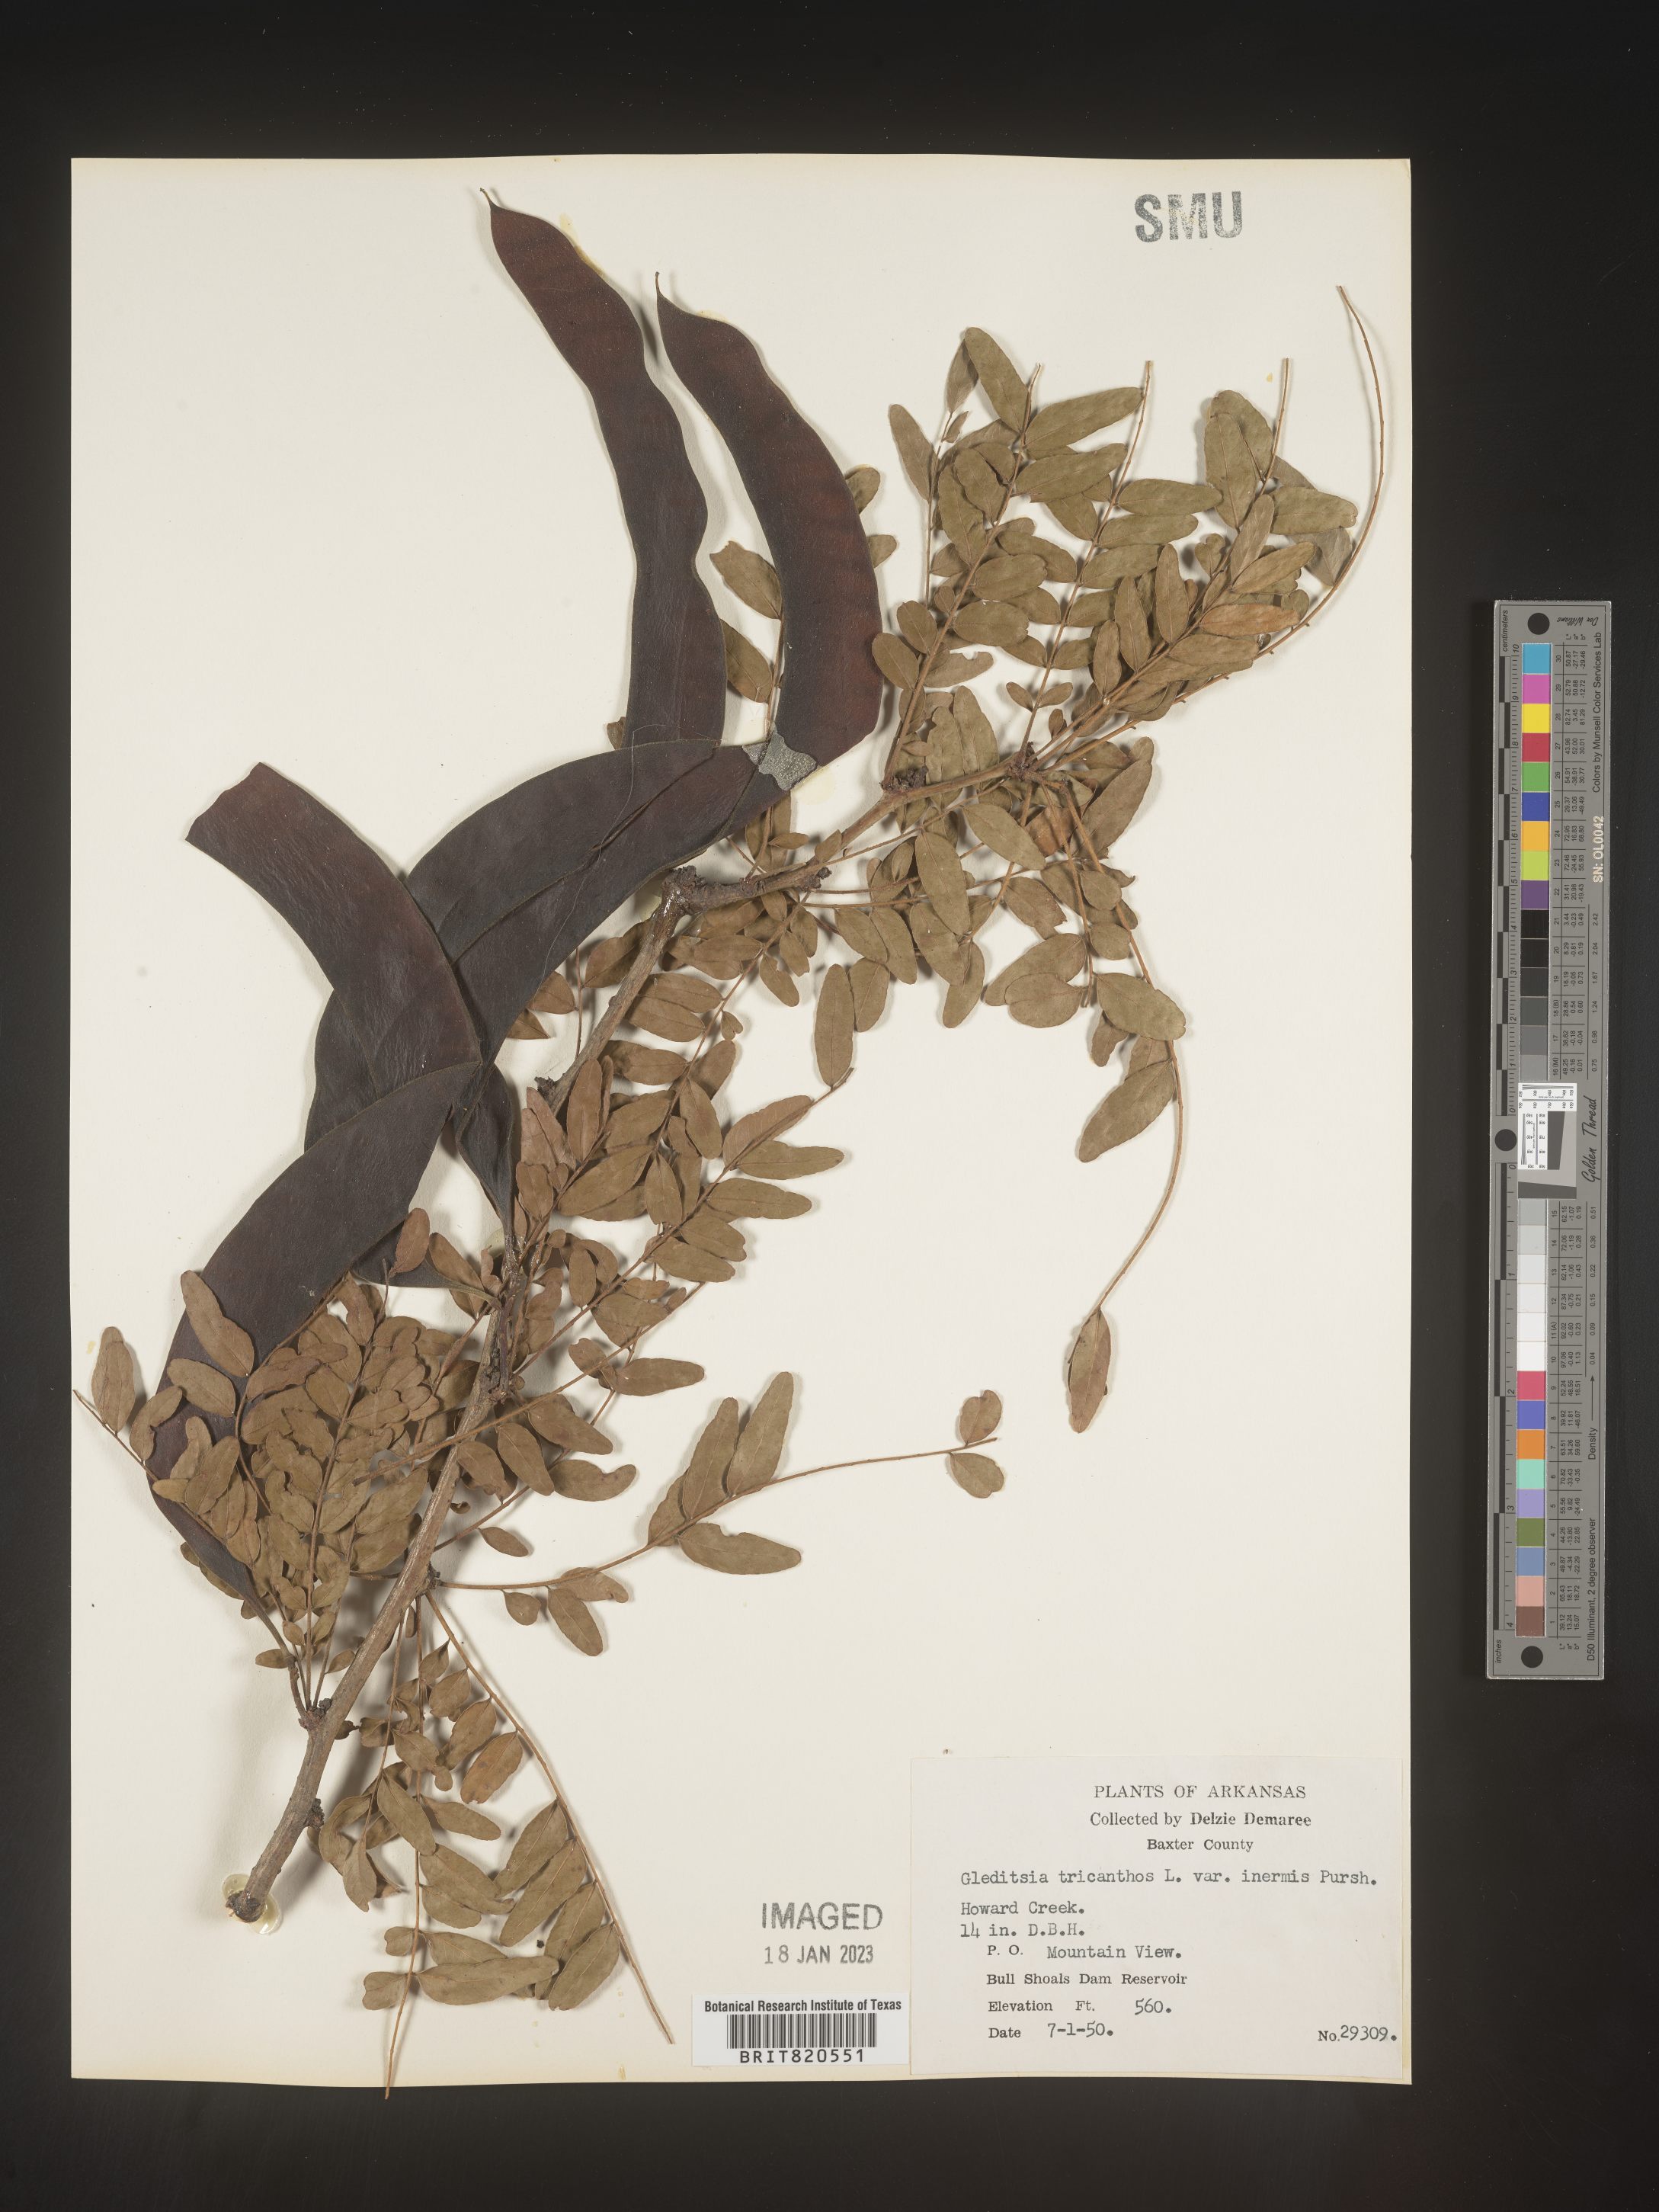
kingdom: Plantae
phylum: Tracheophyta
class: Magnoliopsida
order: Fabales
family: Fabaceae
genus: Gleditsia
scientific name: Gleditsia triacanthos
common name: Common honeylocust
